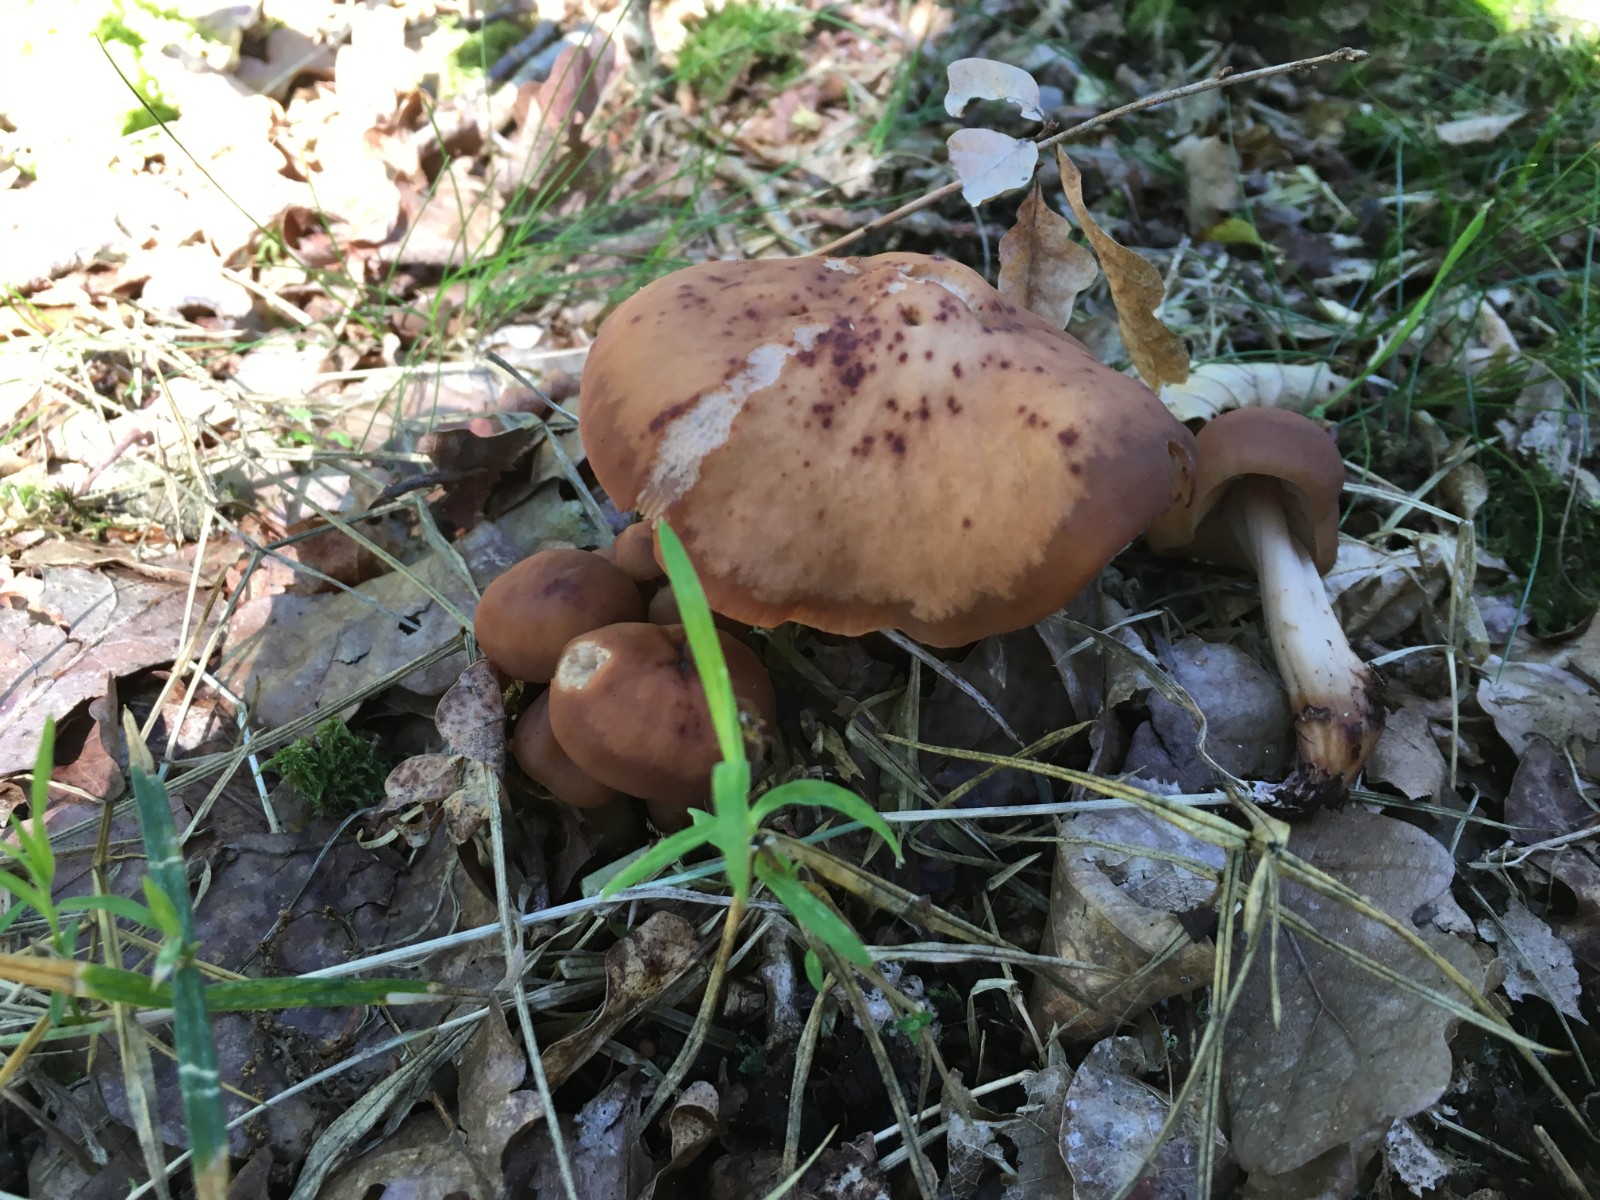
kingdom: Fungi
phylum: Basidiomycota
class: Agaricomycetes
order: Agaricales
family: Omphalotaceae
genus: Gymnopus
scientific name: Gymnopus fusipes
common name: tenstokket fladhat
